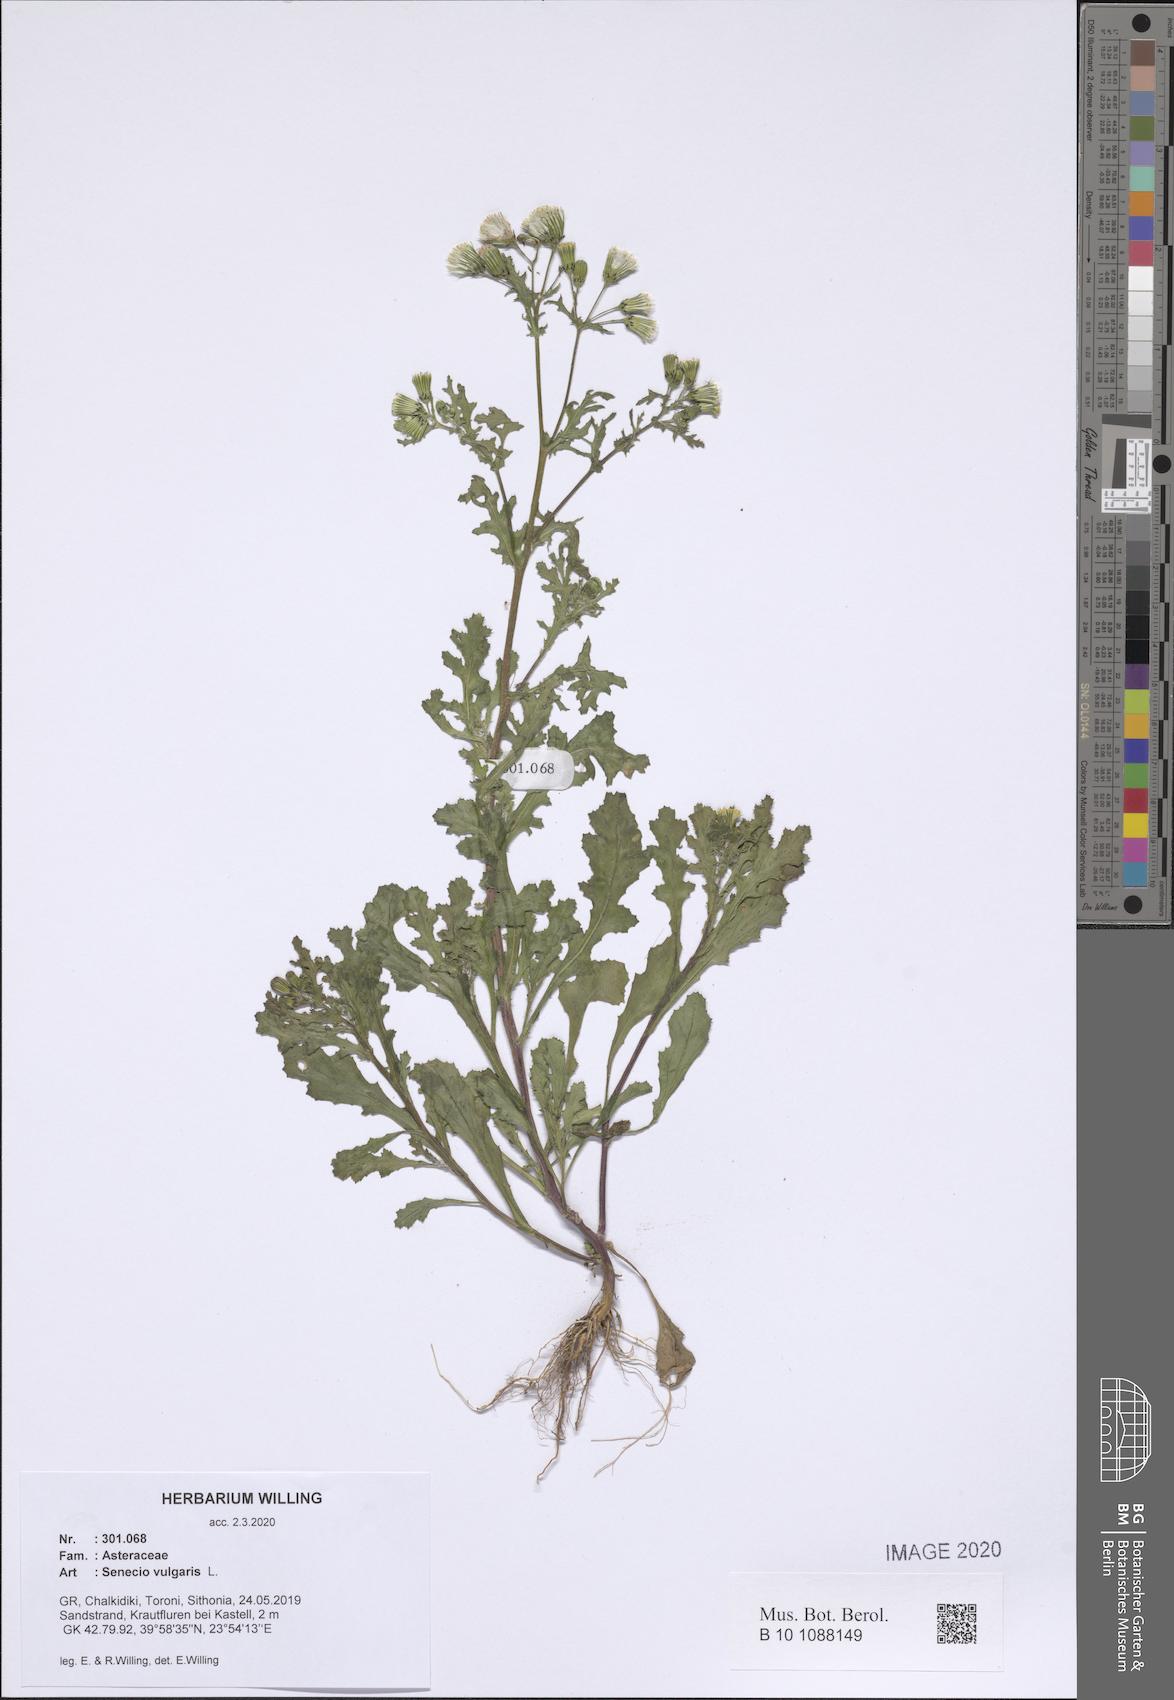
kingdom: Plantae
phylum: Tracheophyta
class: Magnoliopsida
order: Asterales
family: Asteraceae
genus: Senecio
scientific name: Senecio vulgaris
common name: Old-man-in-the-spring
